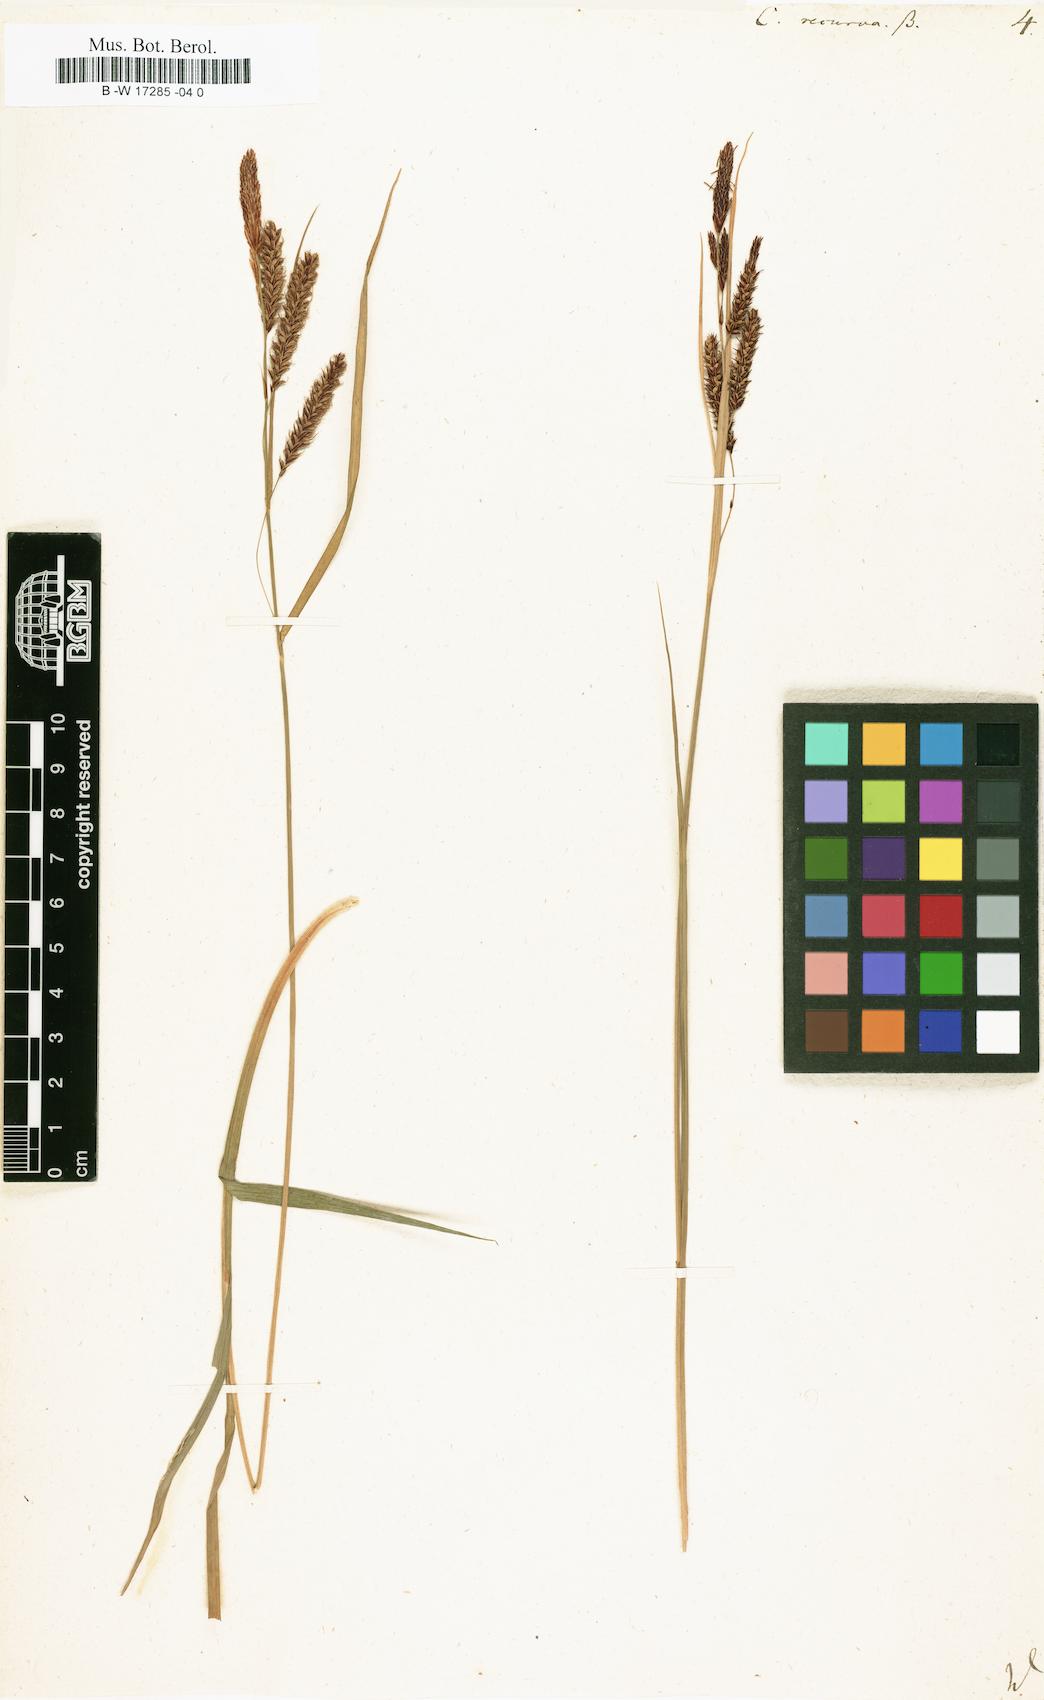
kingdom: Plantae
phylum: Tracheophyta
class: Liliopsida
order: Poales
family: Cyperaceae
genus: Carex
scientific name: Carex
